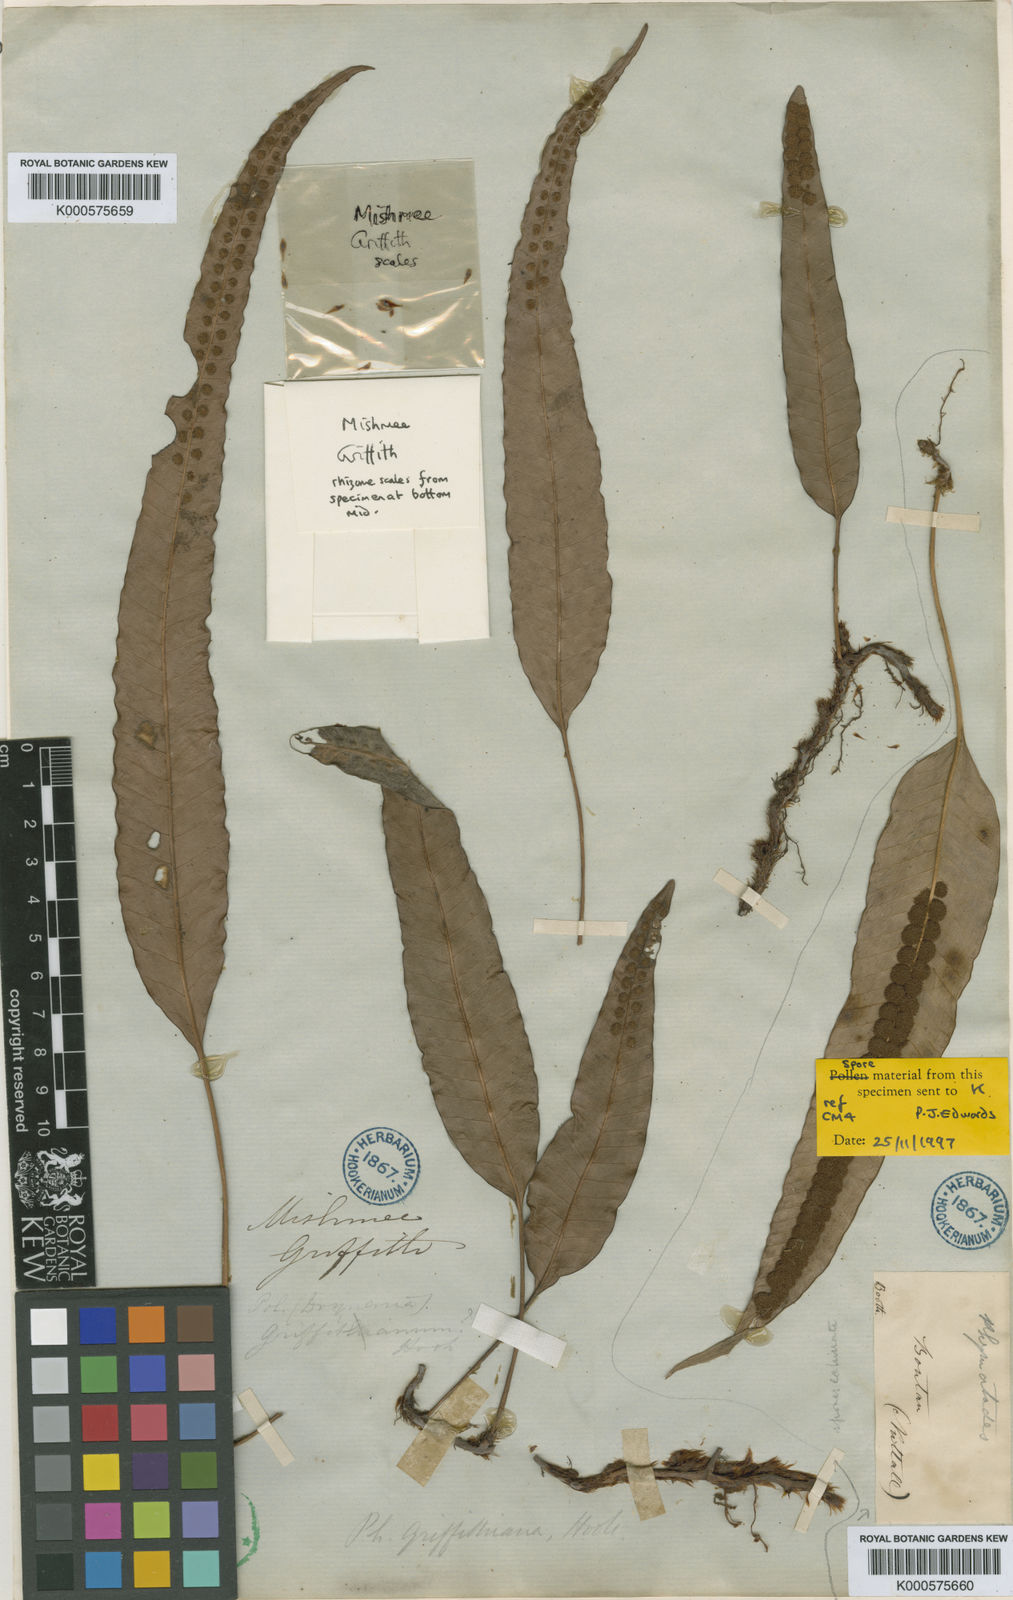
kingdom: Plantae
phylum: Tracheophyta
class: Polypodiopsida
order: Polypodiales
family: Polypodiaceae
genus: Selliguea
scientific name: Selliguea griffithiana
